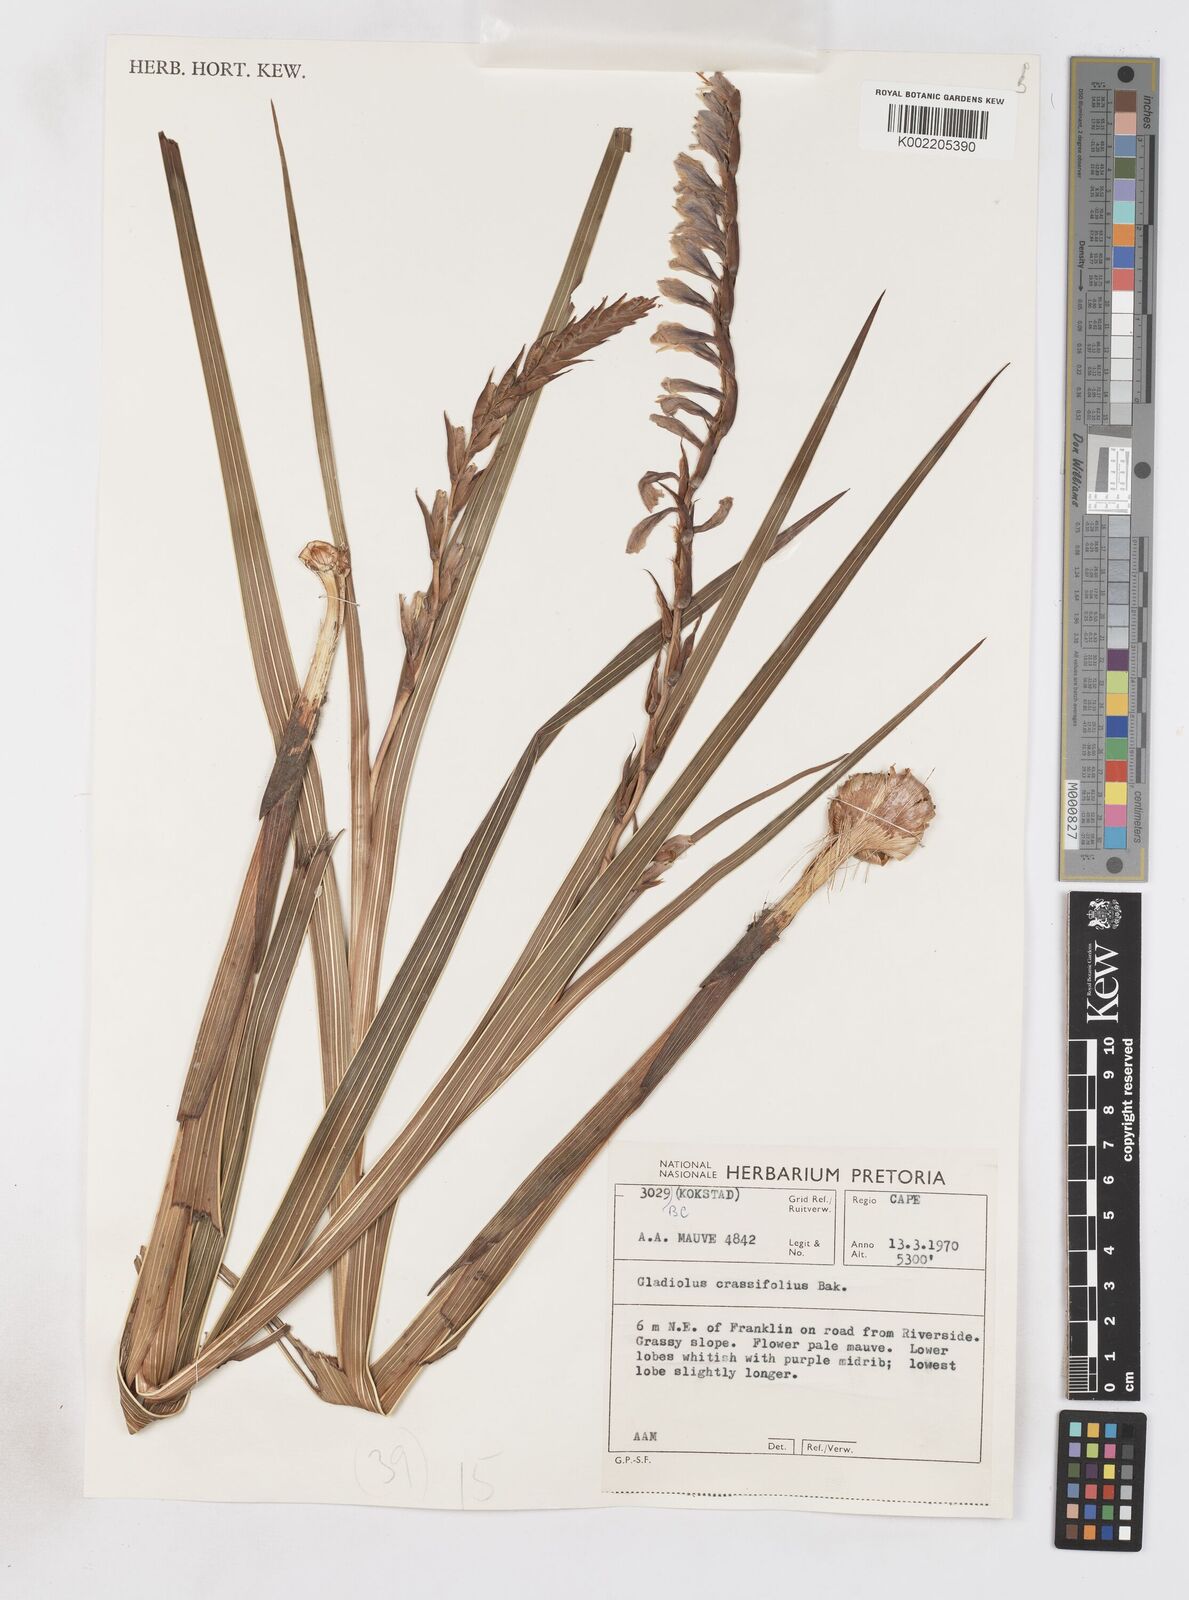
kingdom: Plantae
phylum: Tracheophyta
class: Liliopsida
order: Asparagales
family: Iridaceae
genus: Gladiolus
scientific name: Gladiolus crassifolius
